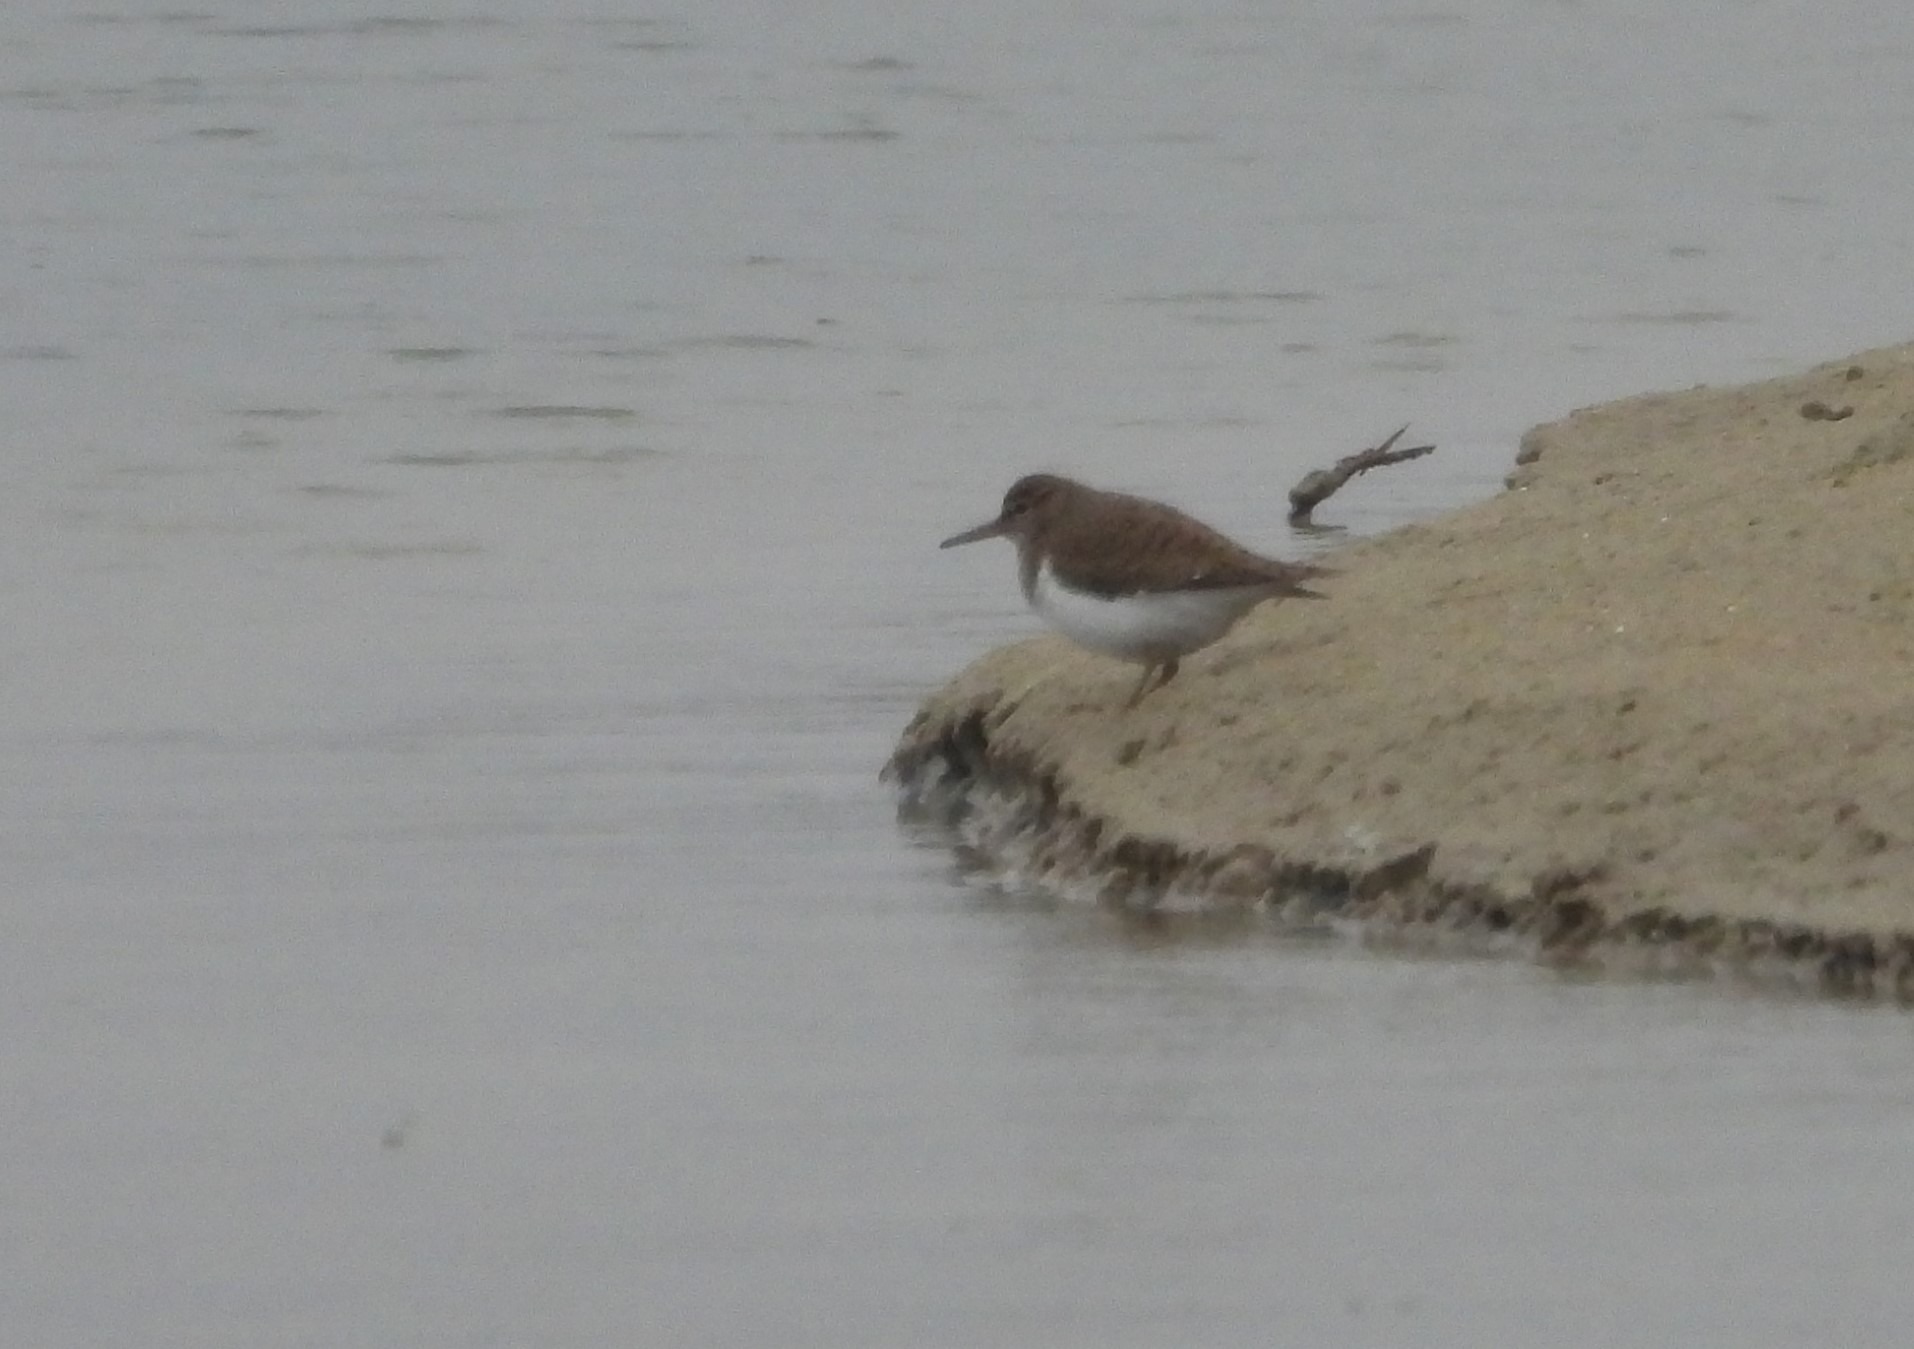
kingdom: Animalia
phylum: Chordata
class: Aves
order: Charadriiformes
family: Scolopacidae
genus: Actitis
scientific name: Actitis hypoleucos
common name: Mudderklire
